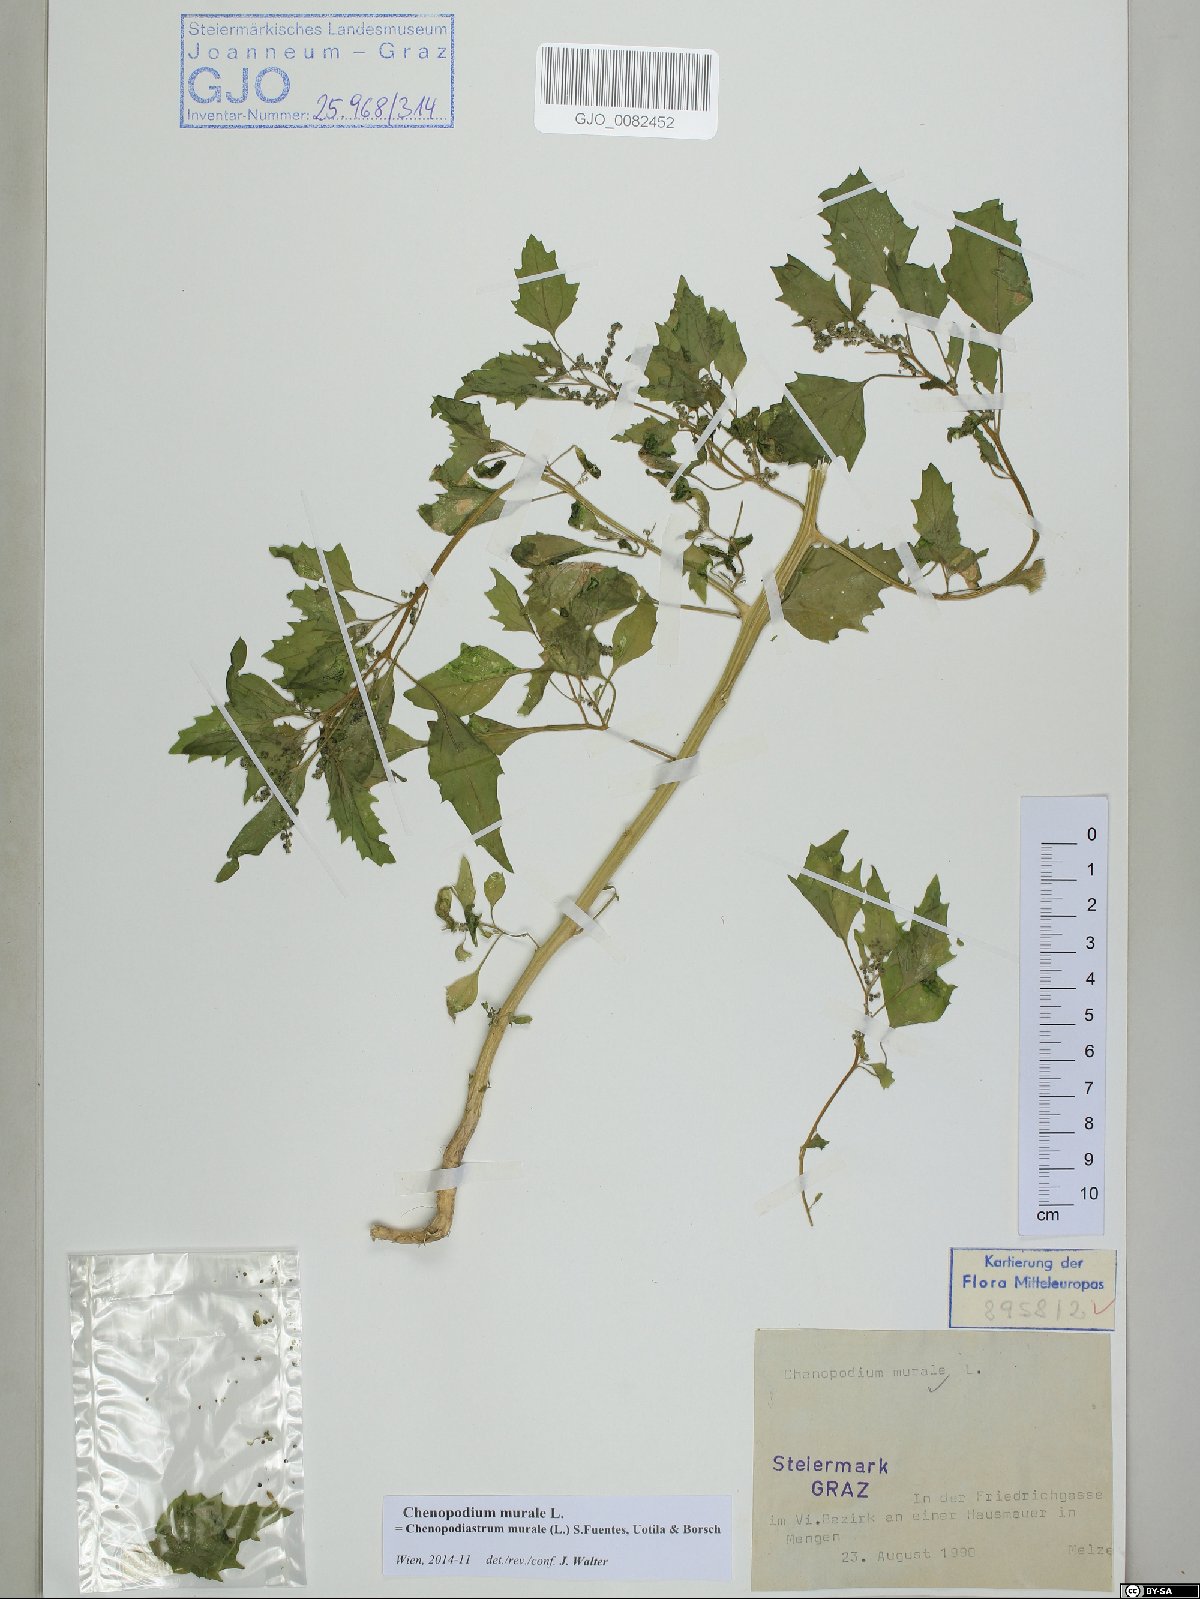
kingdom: Plantae
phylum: Tracheophyta
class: Magnoliopsida
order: Caryophyllales
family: Amaranthaceae
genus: Chenopodiastrum
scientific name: Chenopodiastrum murale
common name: Sowbane
